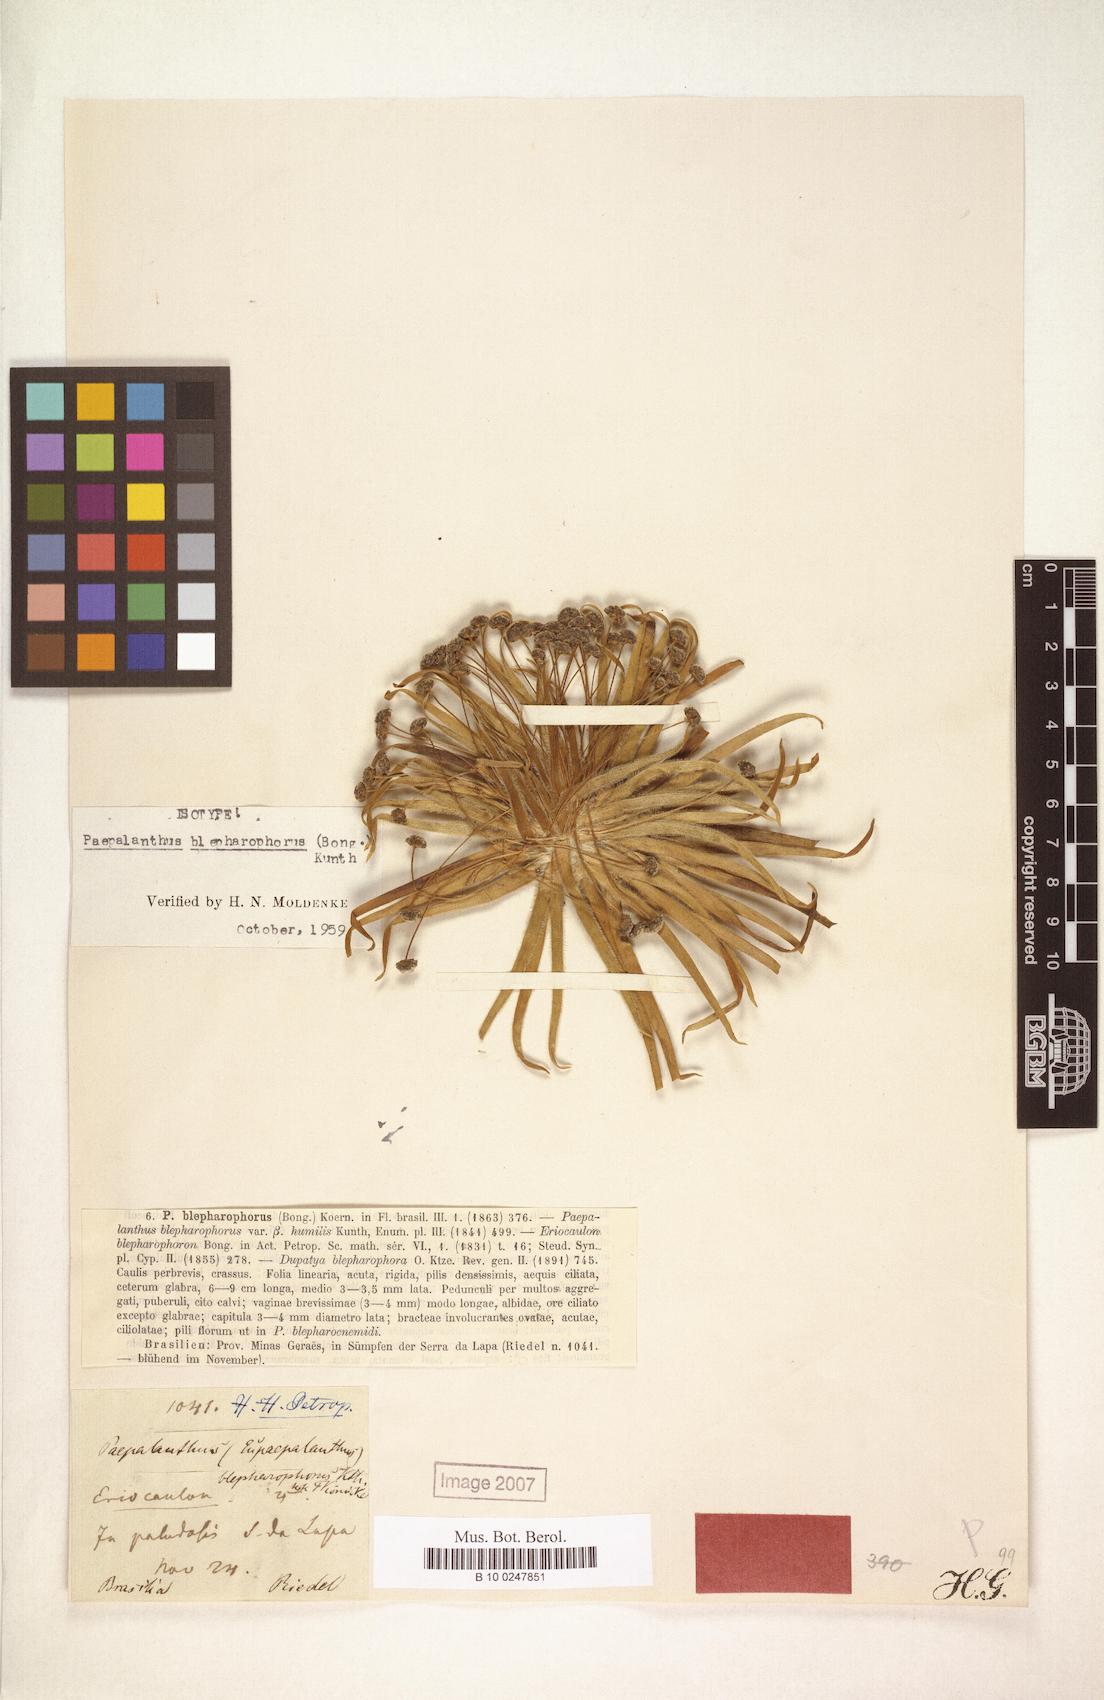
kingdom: Plantae
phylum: Tracheophyta
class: Liliopsida
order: Poales
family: Eriocaulaceae
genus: Paepalanthus
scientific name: Paepalanthus blepharophorus
